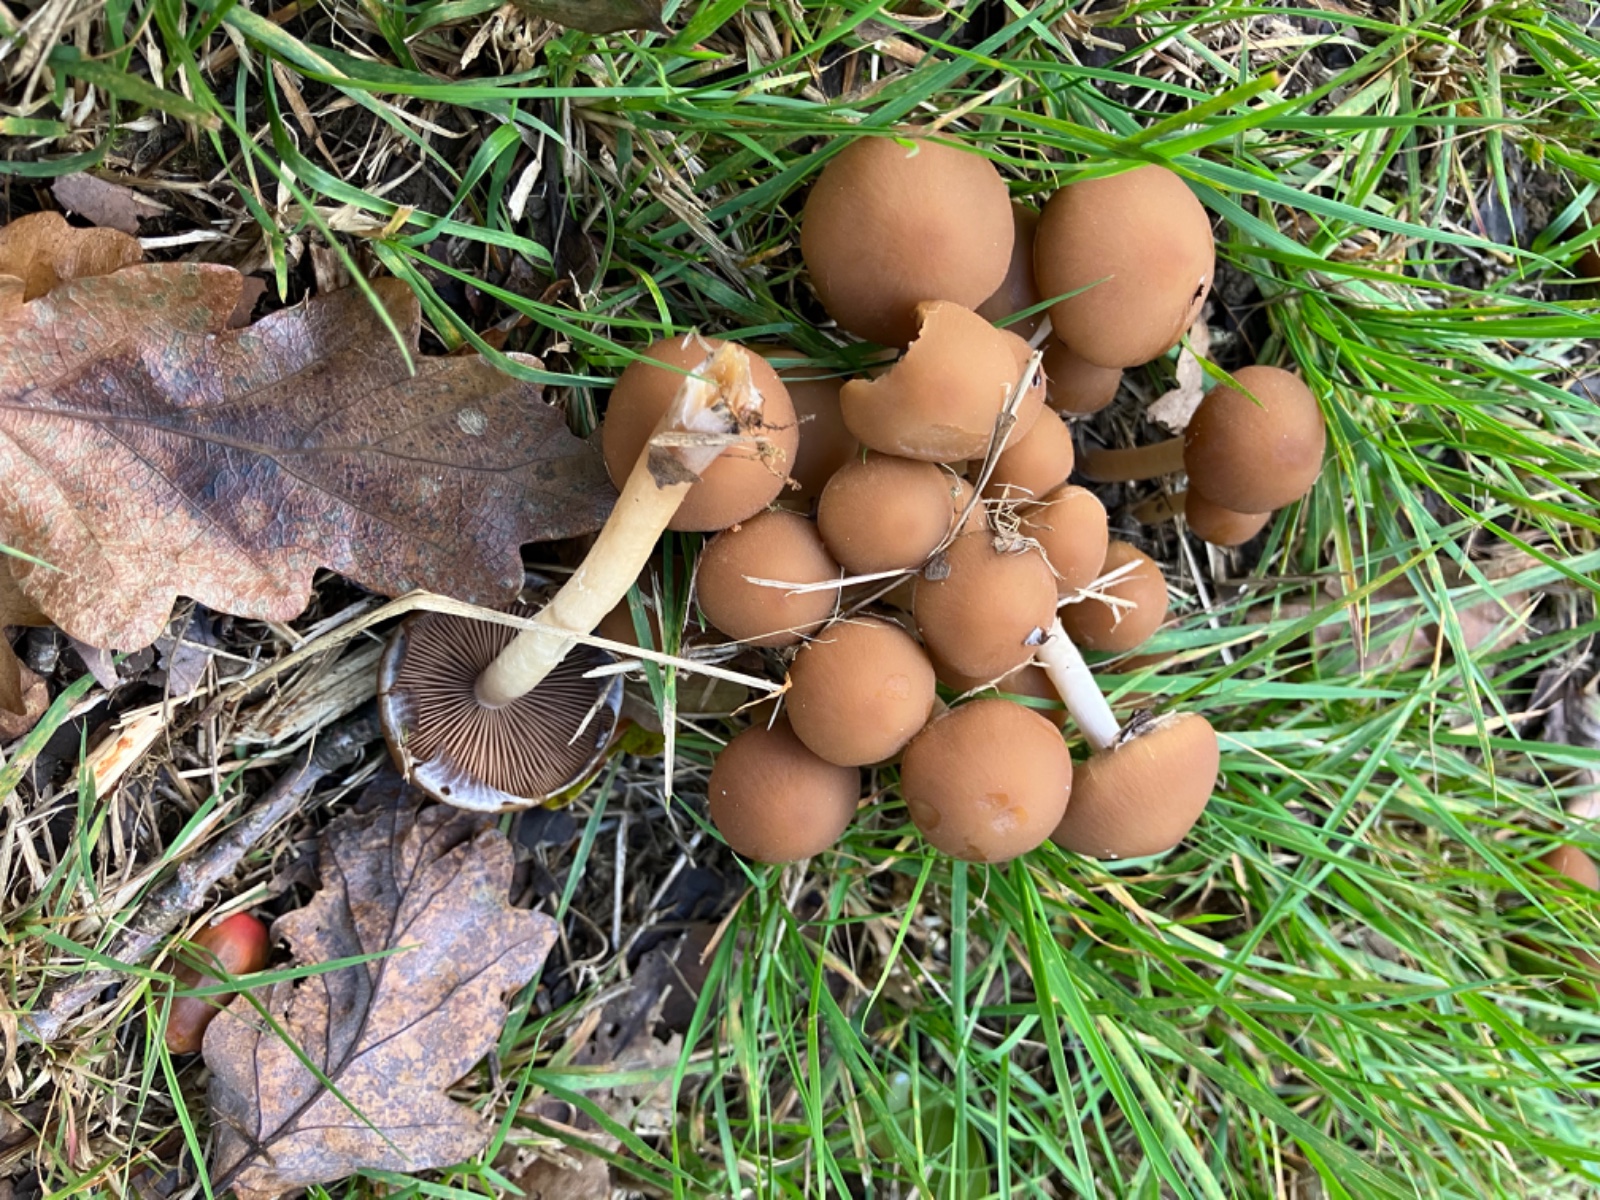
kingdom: Fungi
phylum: Basidiomycota
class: Agaricomycetes
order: Agaricales
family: Psathyrellaceae
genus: Psathyrella
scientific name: Psathyrella piluliformis
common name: lysstokket mørkhat
